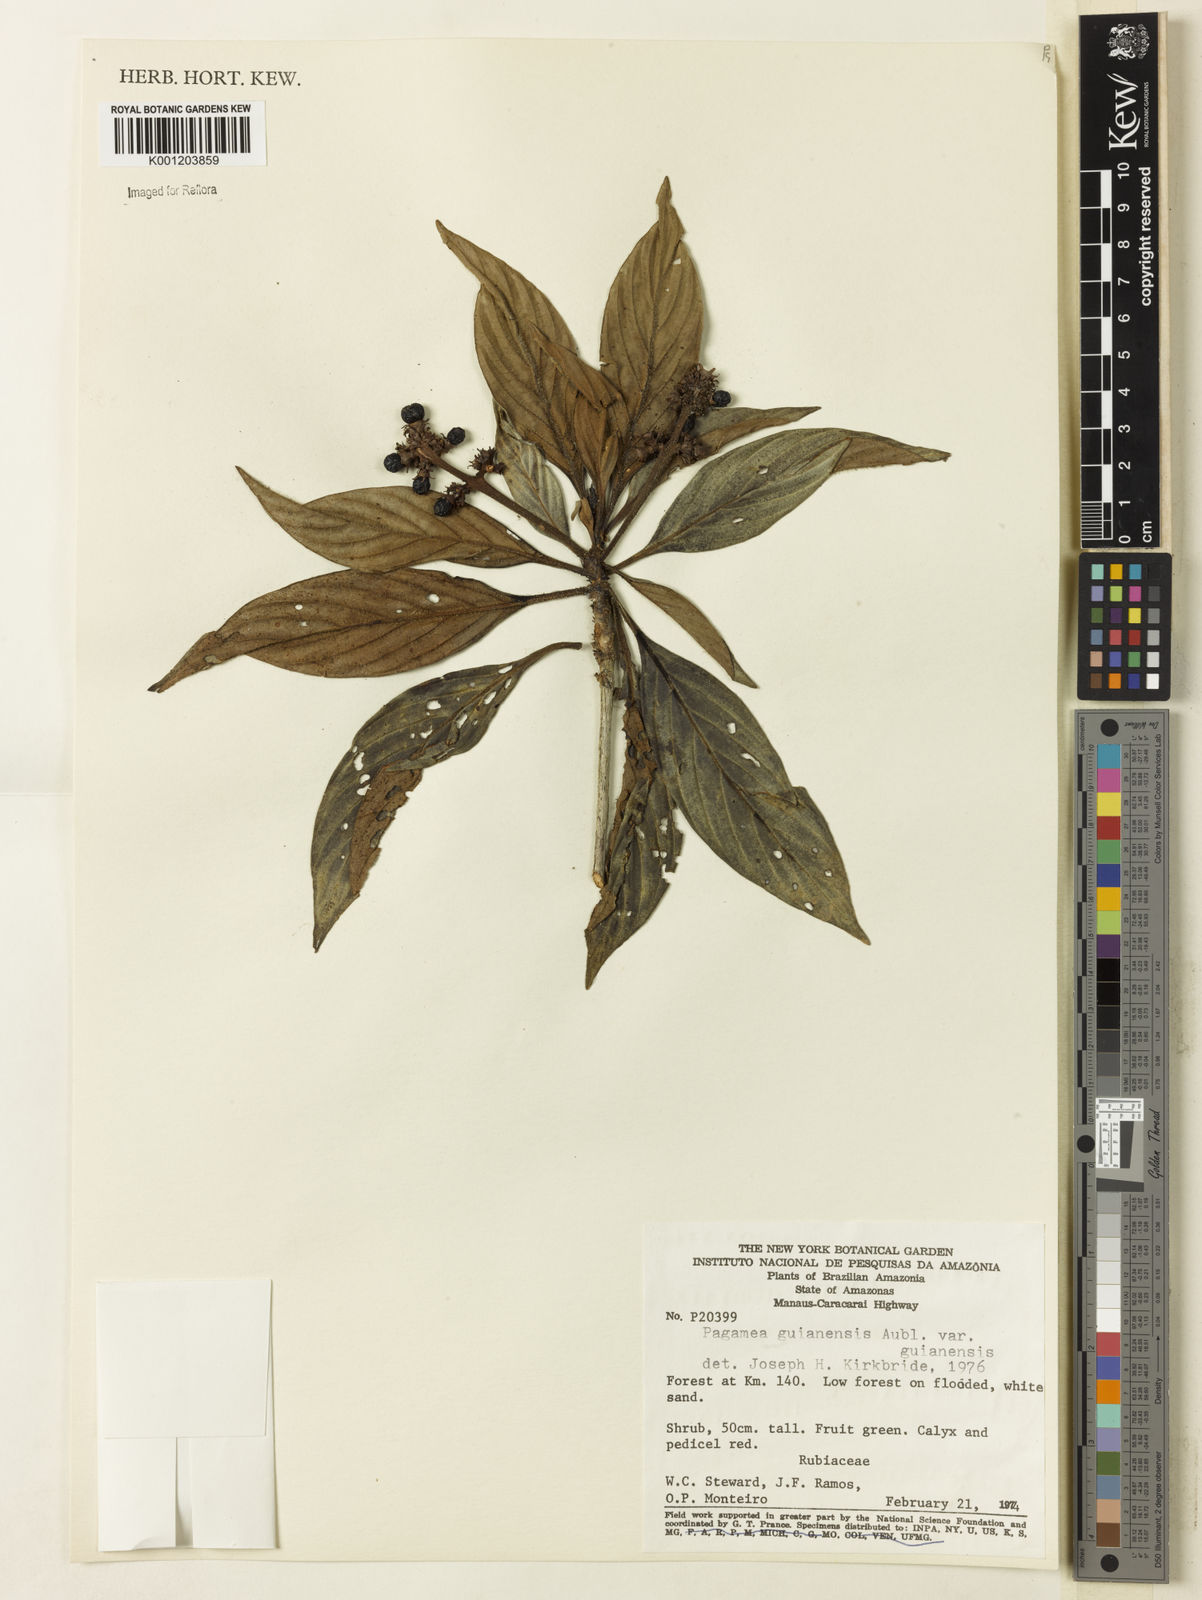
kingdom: Plantae
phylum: Tracheophyta
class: Magnoliopsida
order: Gentianales
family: Rubiaceae
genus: Pagamea
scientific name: Pagamea guianensis
